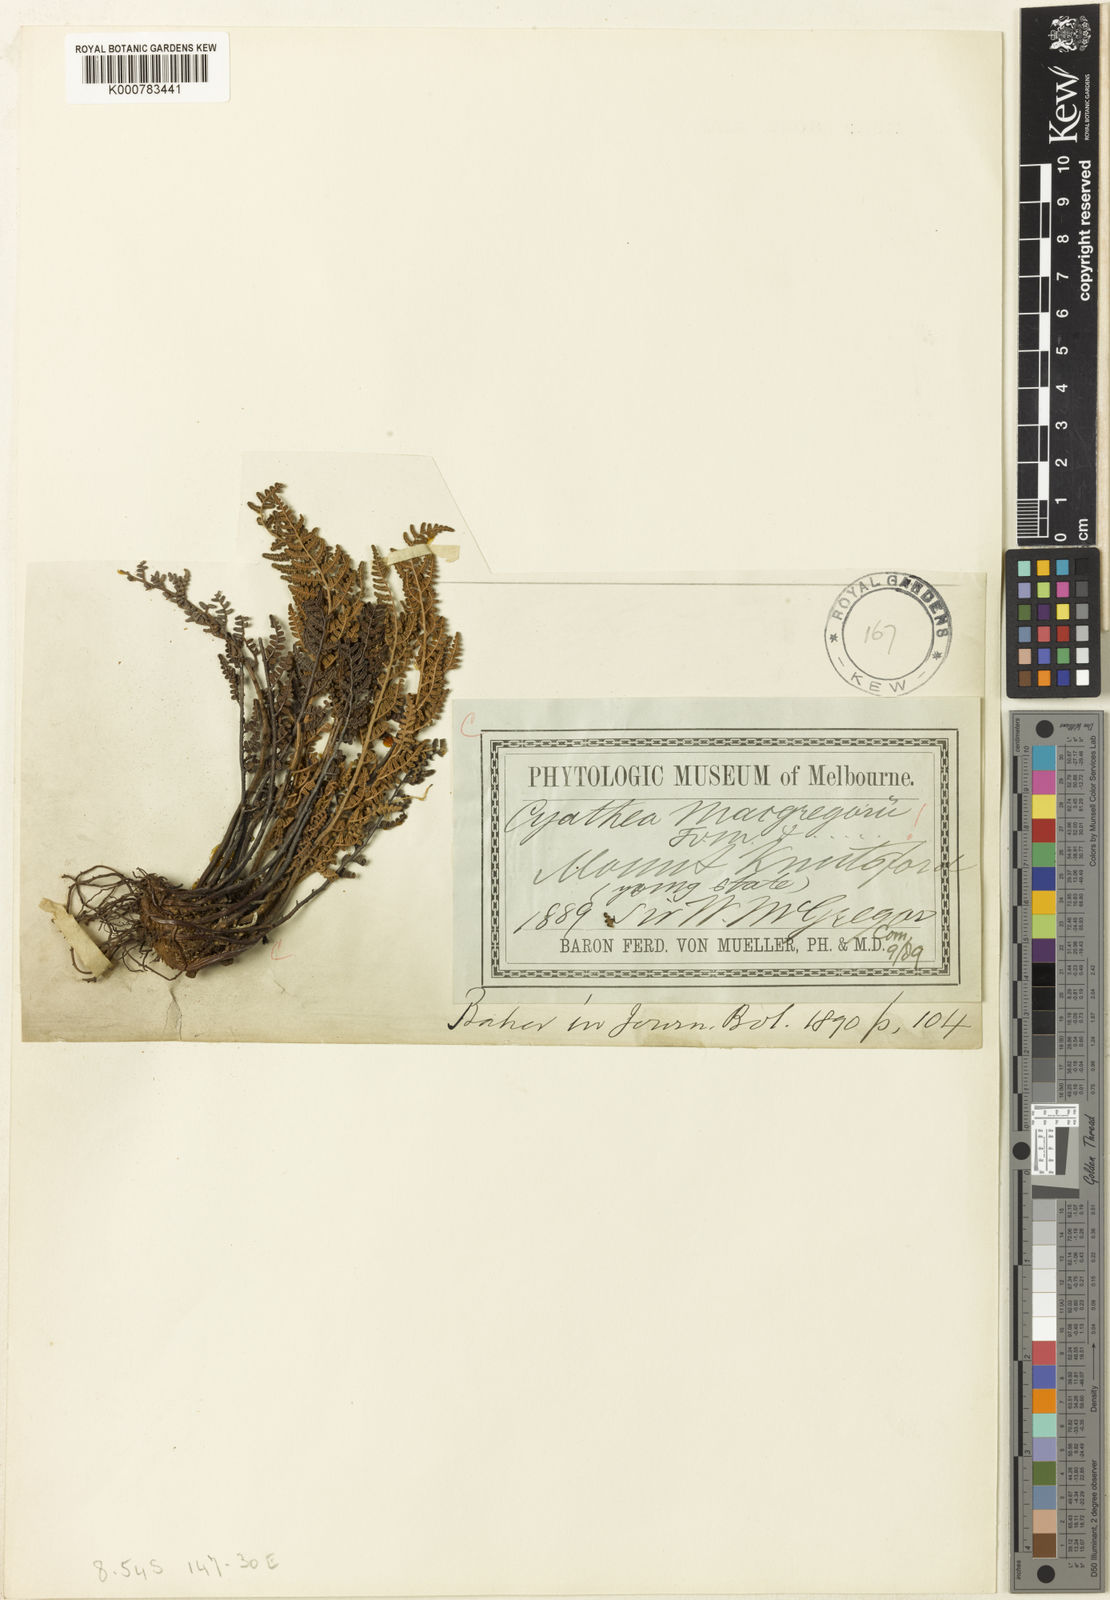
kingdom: Plantae
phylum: Tracheophyta
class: Polypodiopsida
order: Cyatheales
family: Cyatheaceae
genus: Alsophila
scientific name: Alsophila macgregorii
